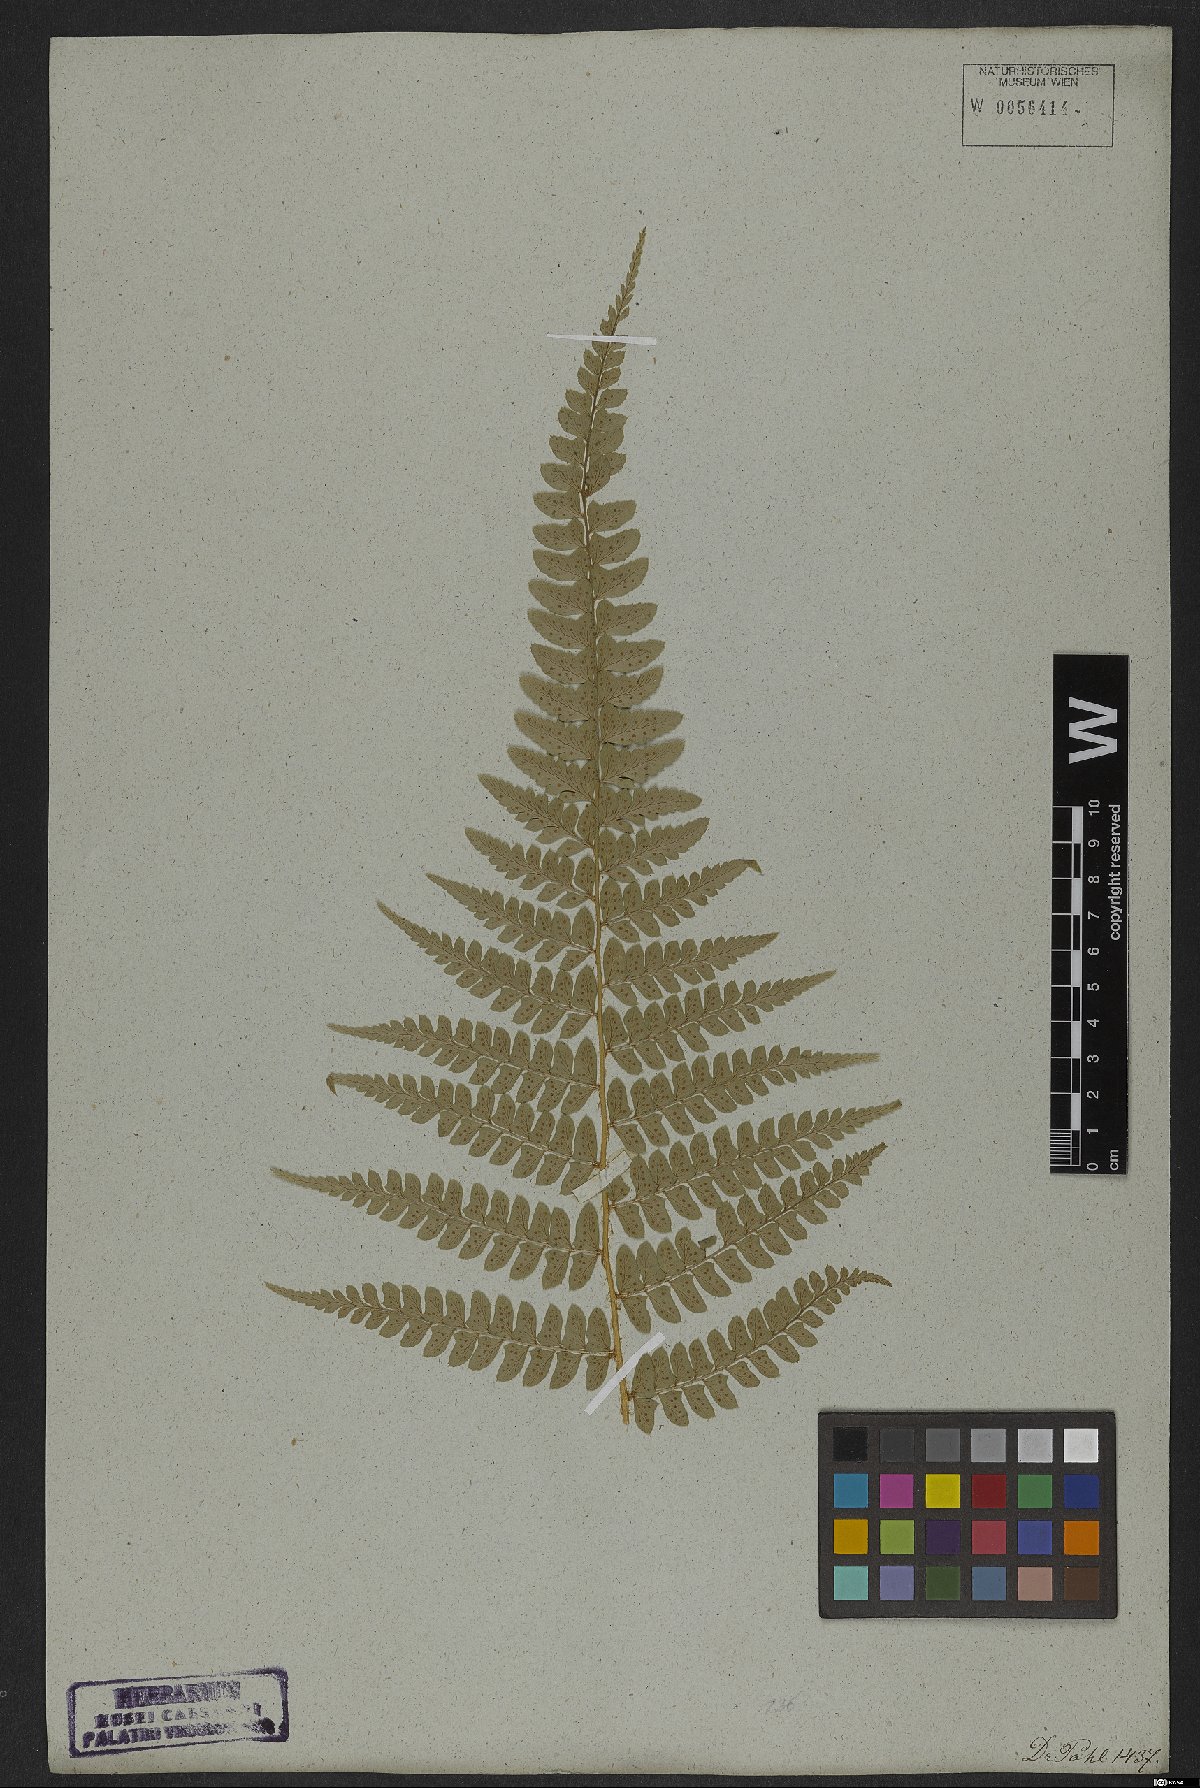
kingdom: Plantae
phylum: Tracheophyta
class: Polypodiopsida
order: Polypodiales
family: Dryopteridaceae
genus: Polystichum
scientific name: Polystichum aculeatum
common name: Hard shield-fern
